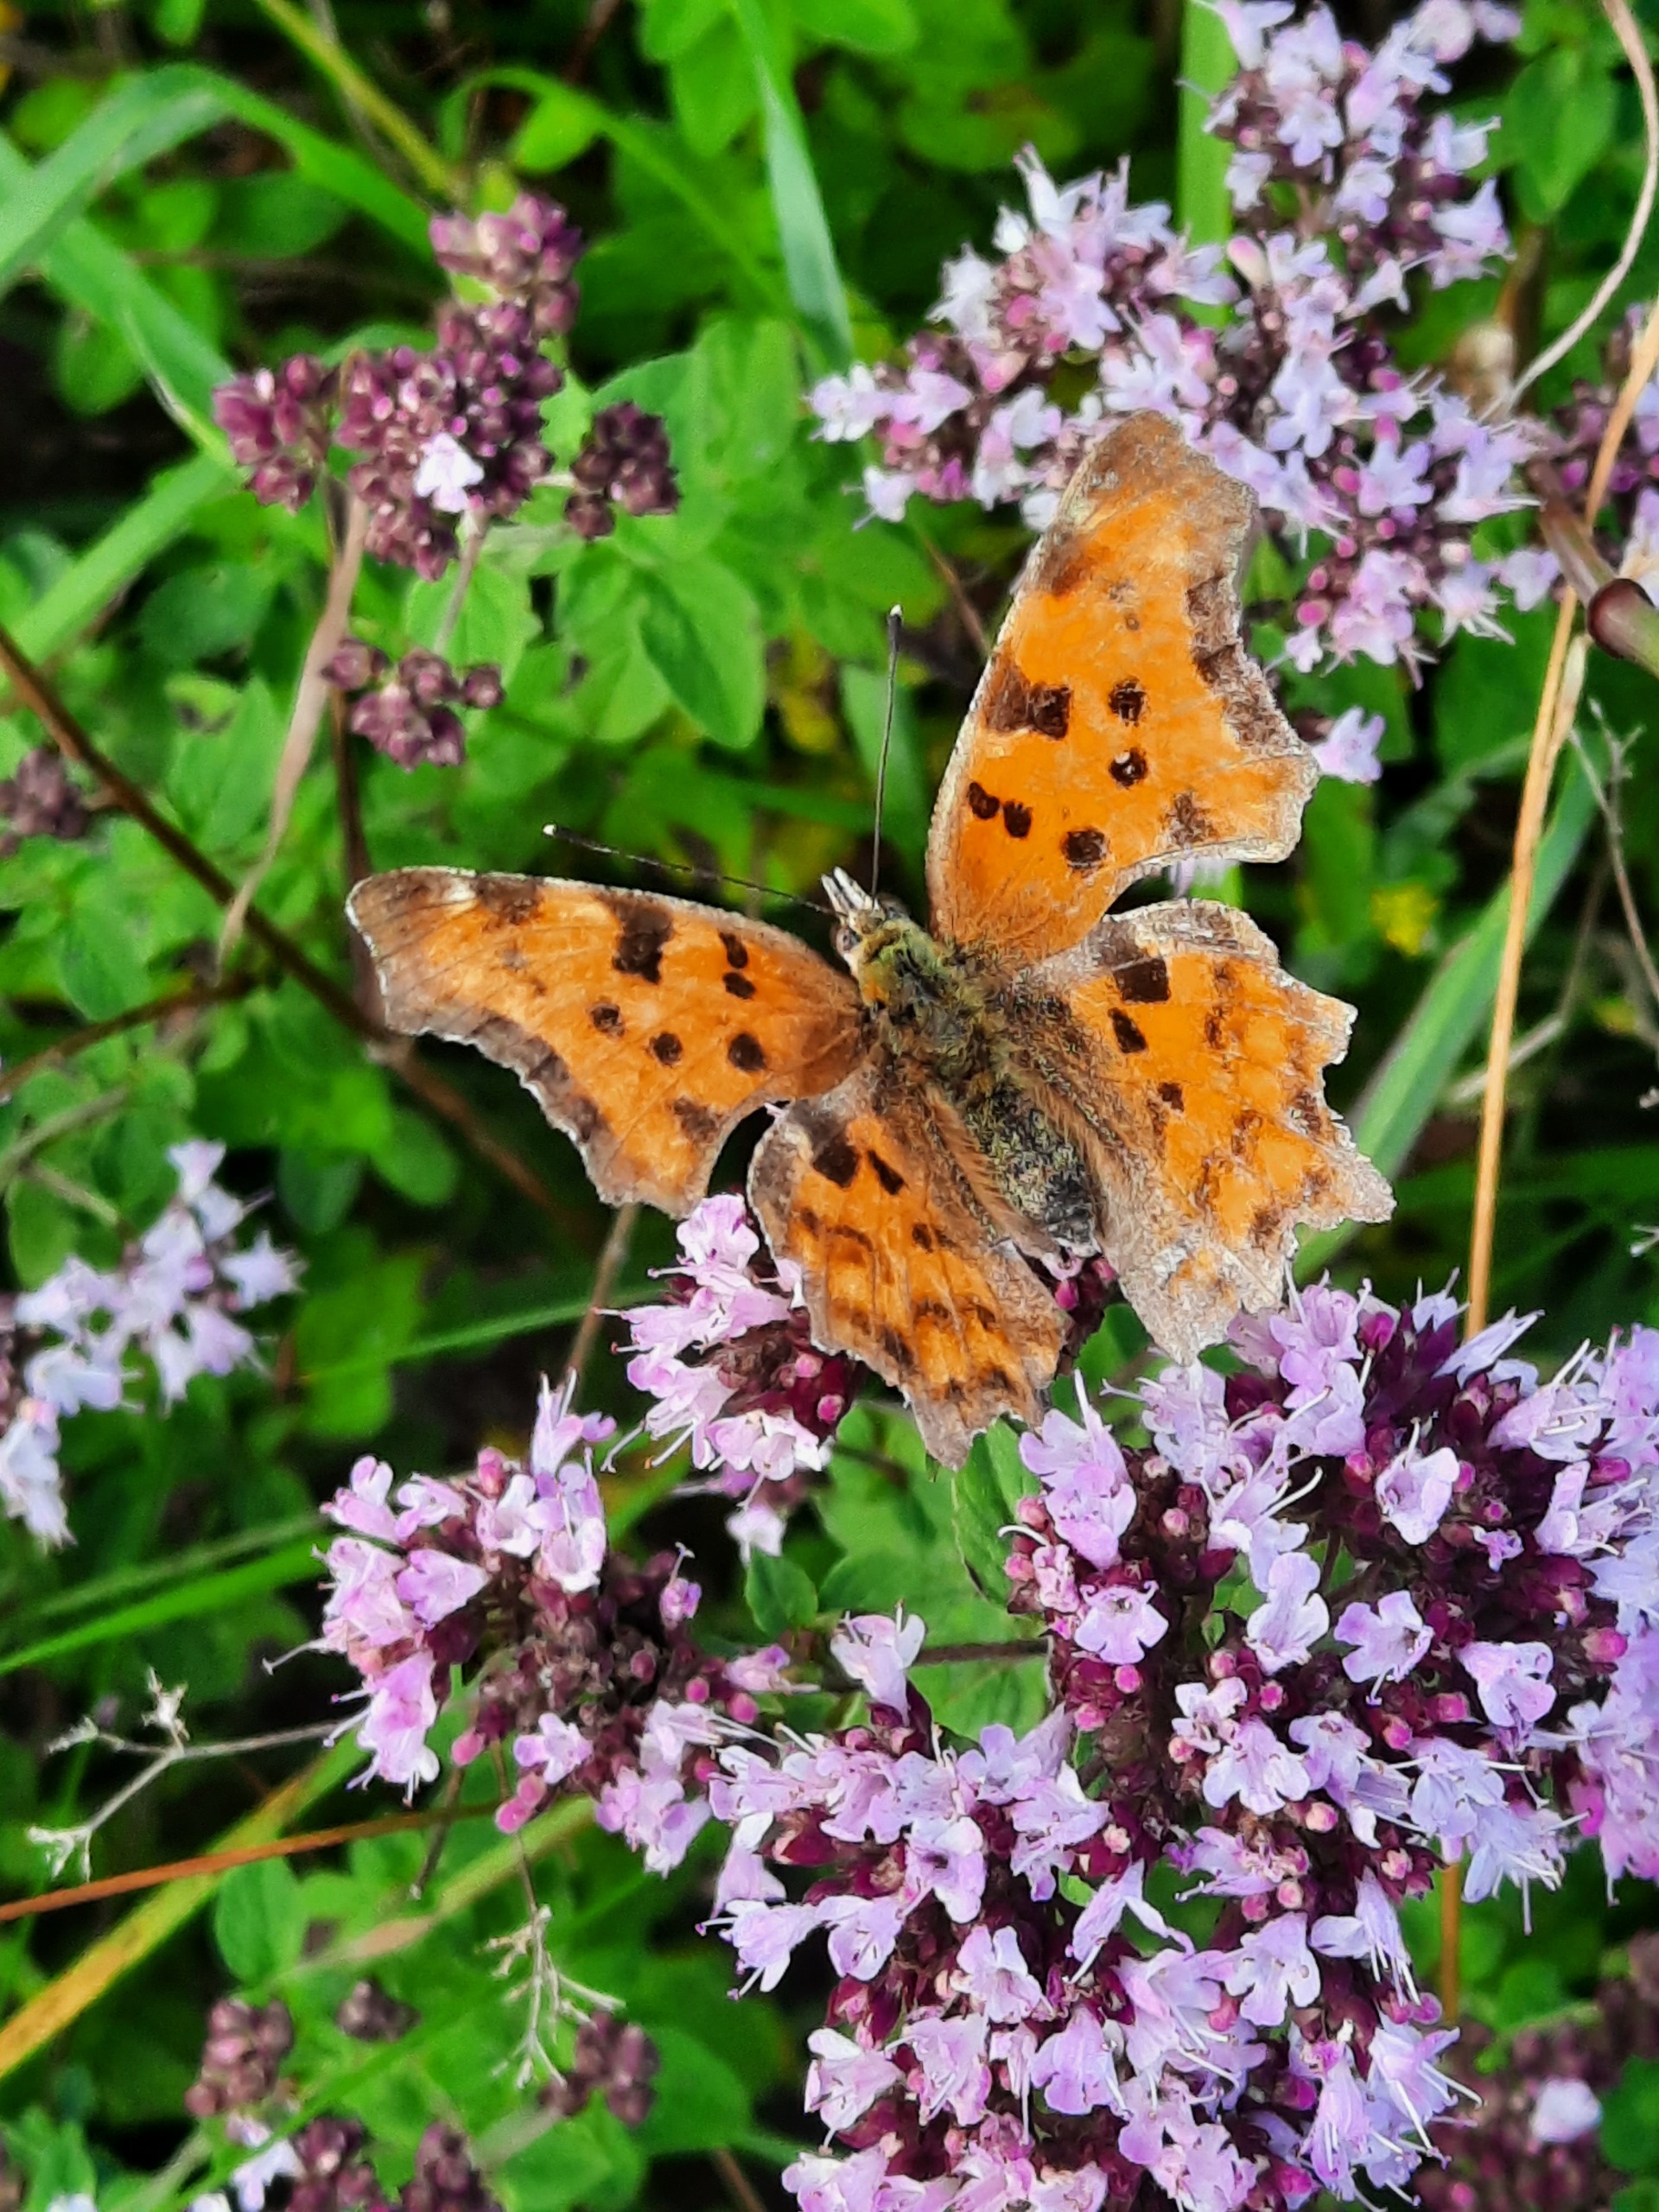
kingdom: Animalia
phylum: Arthropoda
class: Insecta
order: Lepidoptera
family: Nymphalidae
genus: Polygonia
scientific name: Polygonia c-album
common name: Det hvide C
